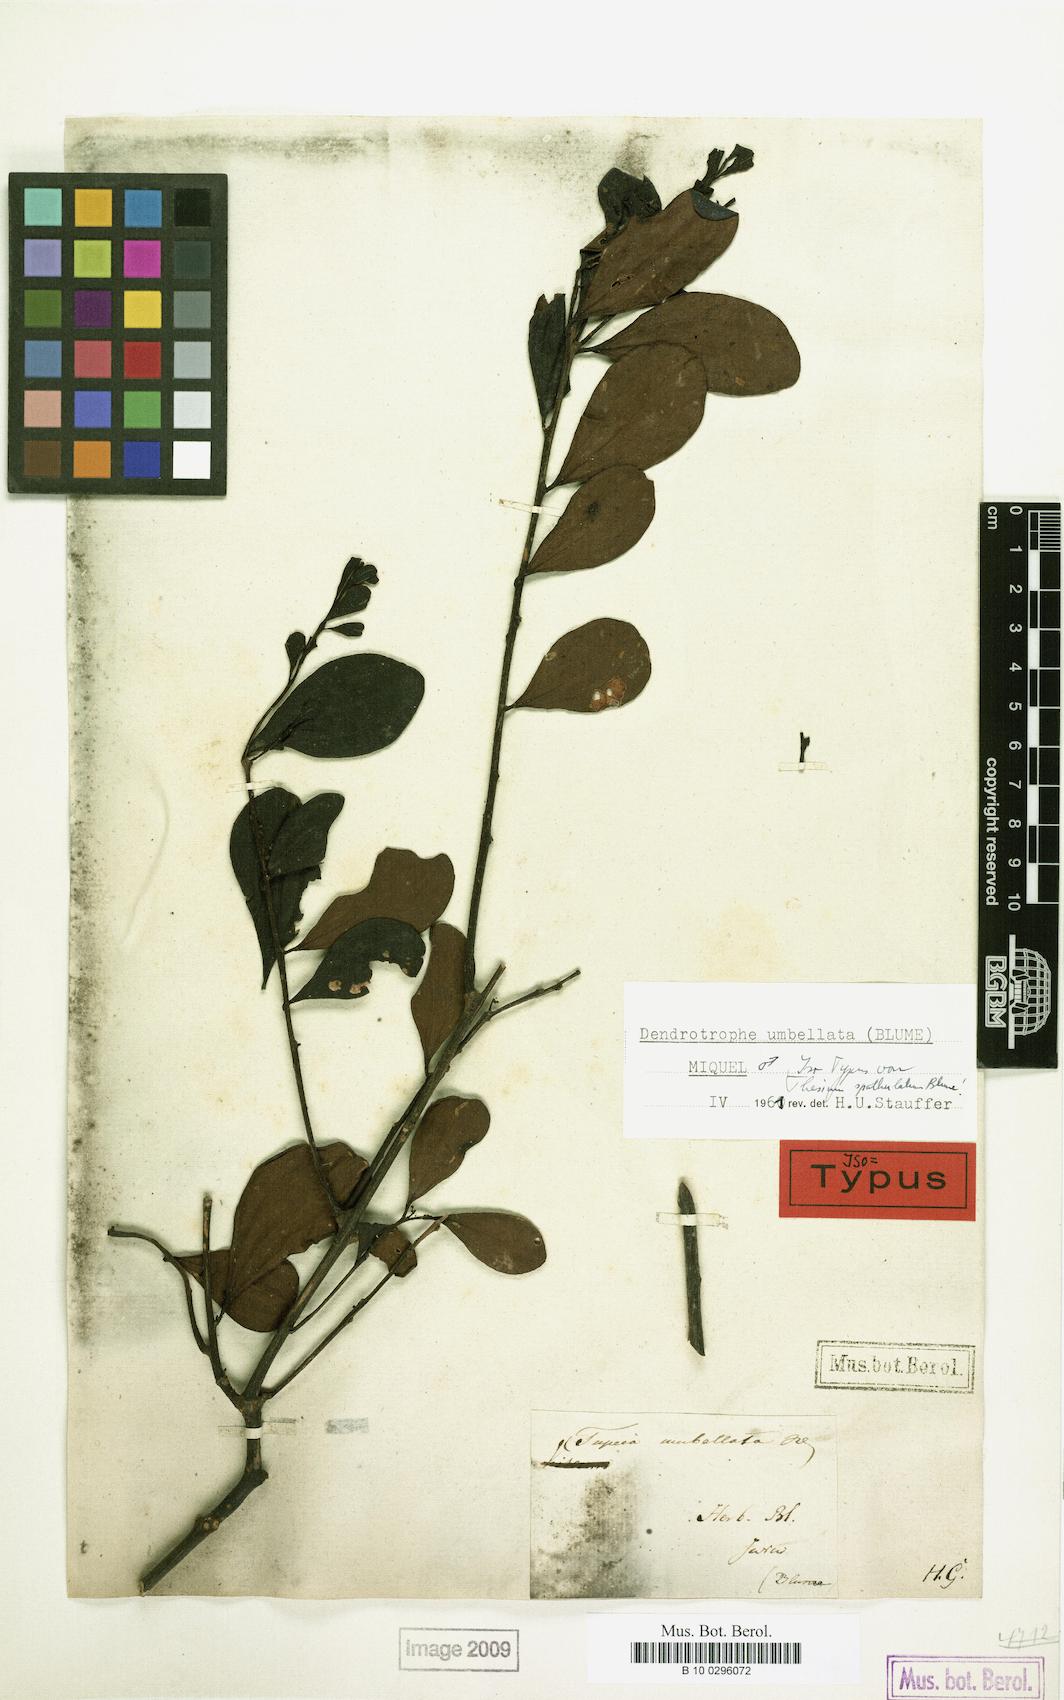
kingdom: Plantae
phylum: Tracheophyta
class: Magnoliopsida
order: Santalales
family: Amphorogynaceae
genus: Dendrotrophe
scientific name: Dendrotrophe umbellata
